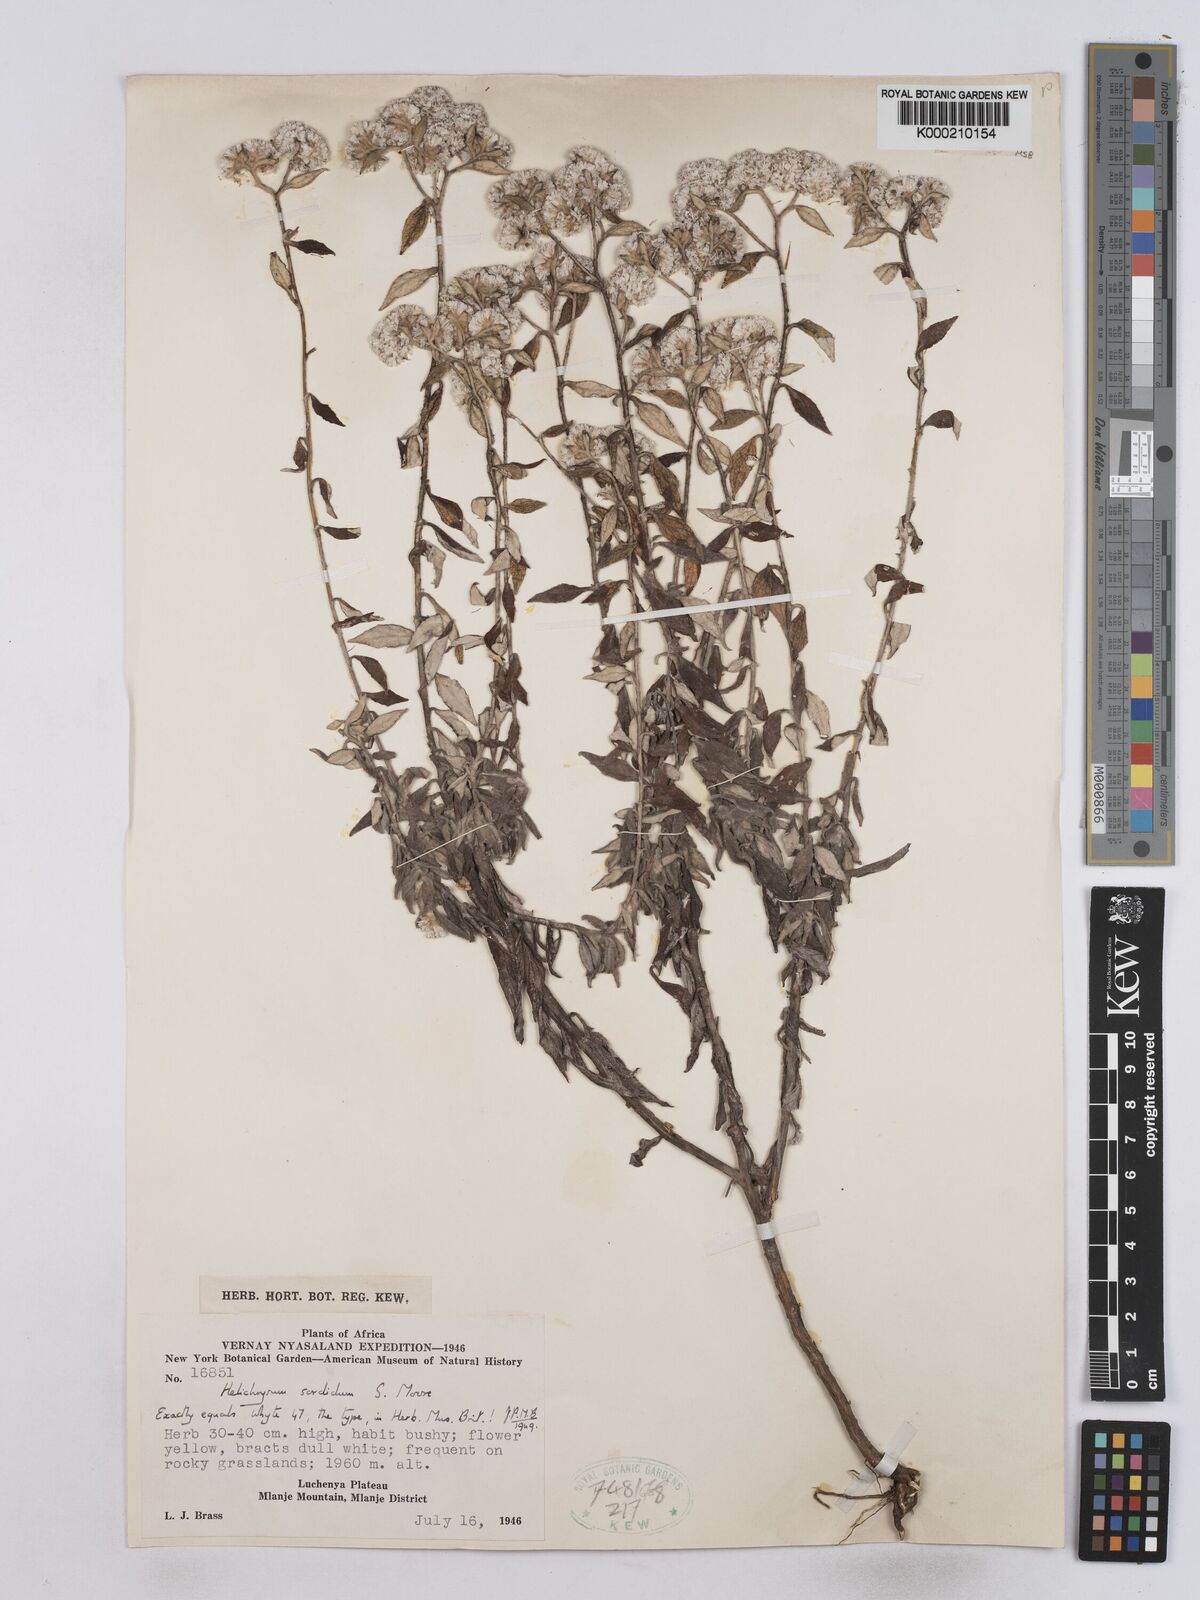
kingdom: Plantae
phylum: Tracheophyta
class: Magnoliopsida
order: Asterales
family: Asteraceae
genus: Helichrysum
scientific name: Helichrysum
